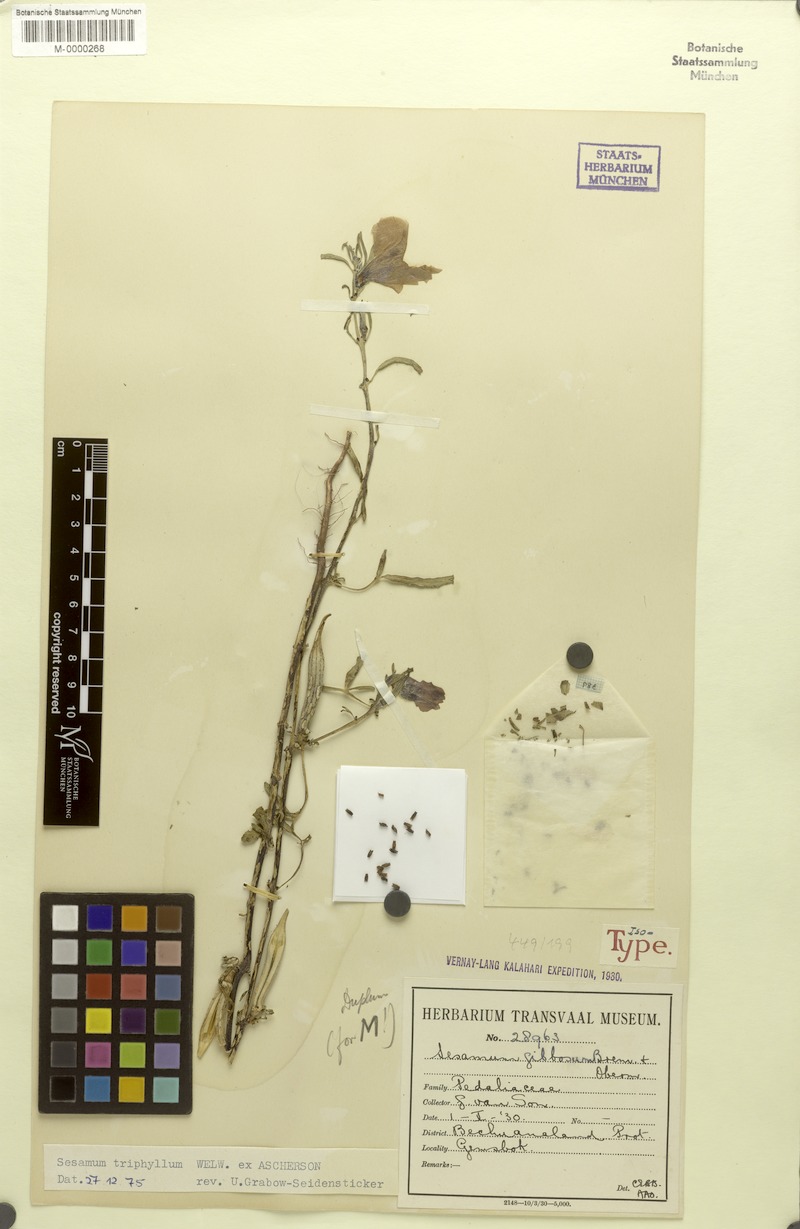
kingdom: Plantae
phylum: Tracheophyta
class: Magnoliopsida
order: Lamiales
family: Pedaliaceae
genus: Sesamum
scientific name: Sesamum triphyllum
